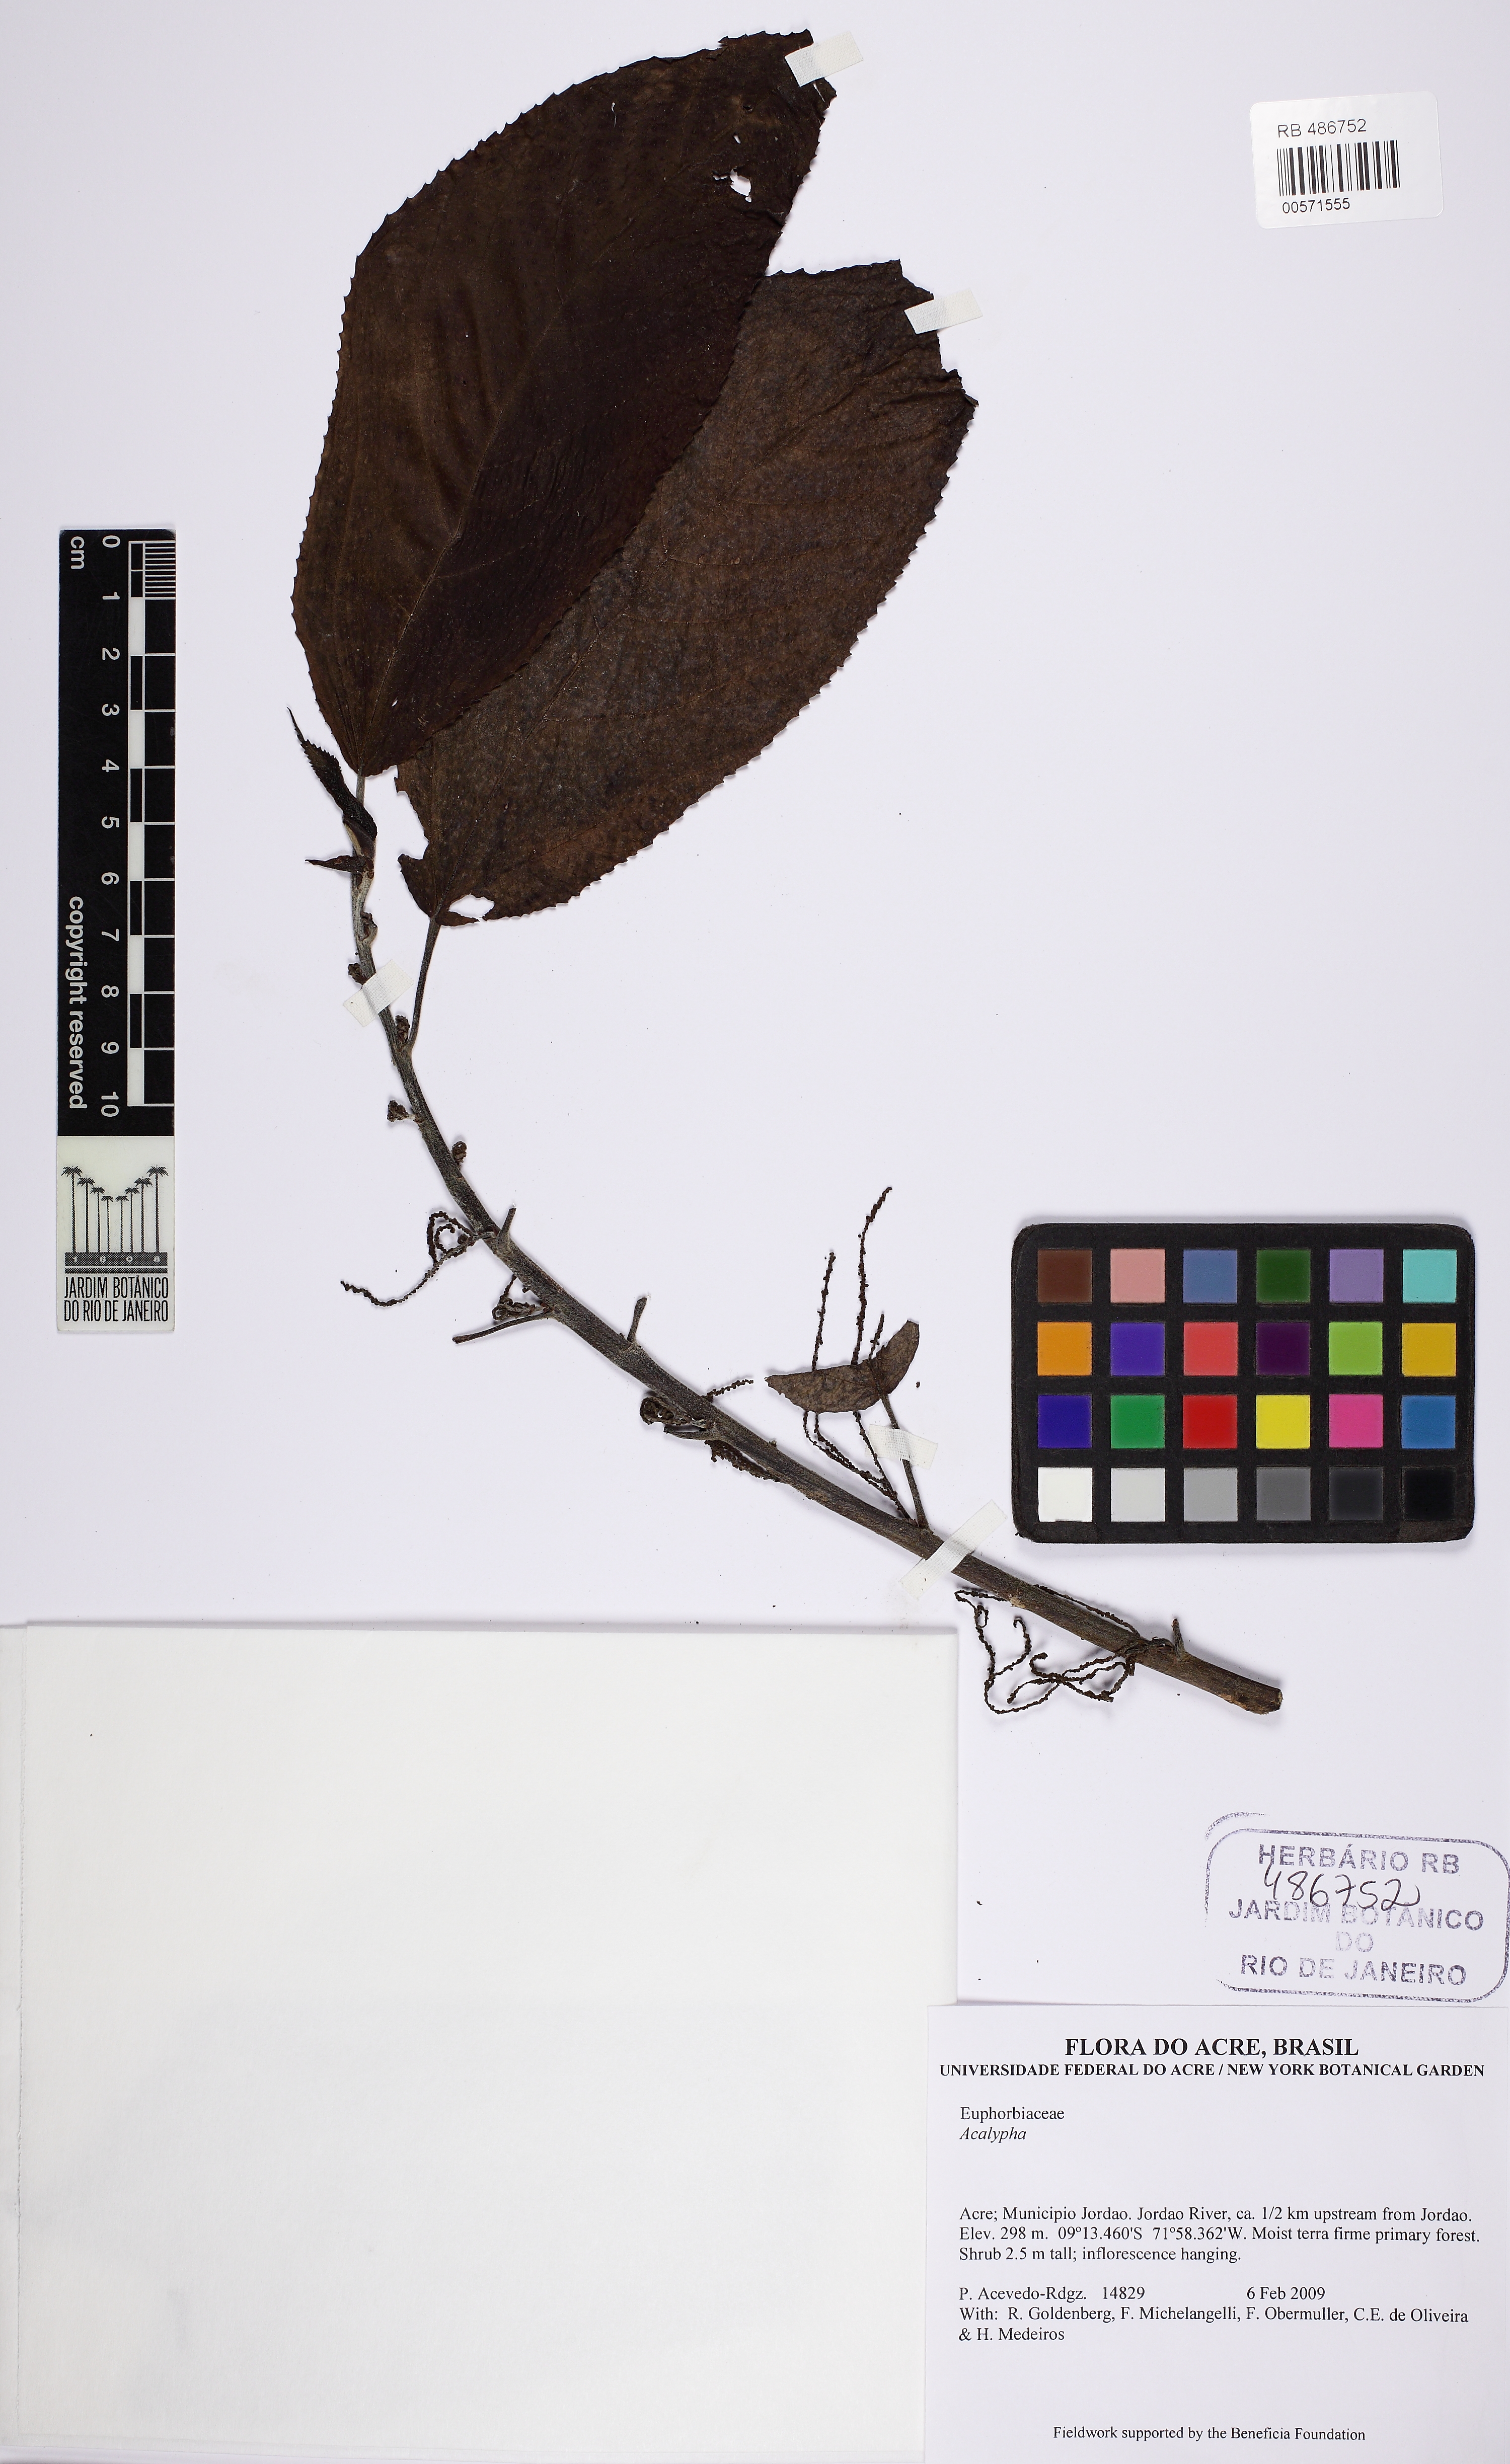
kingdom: Plantae
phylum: Tracheophyta
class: Magnoliopsida
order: Malpighiales
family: Euphorbiaceae
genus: Acalypha
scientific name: Acalypha
